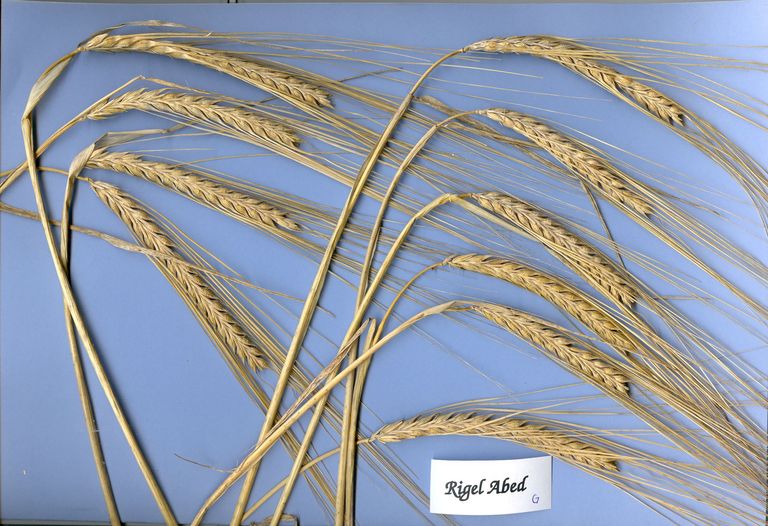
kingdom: Plantae
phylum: Tracheophyta
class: Liliopsida
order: Poales
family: Poaceae
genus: Hordeum
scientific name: Hordeum vulgare
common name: Common barley
